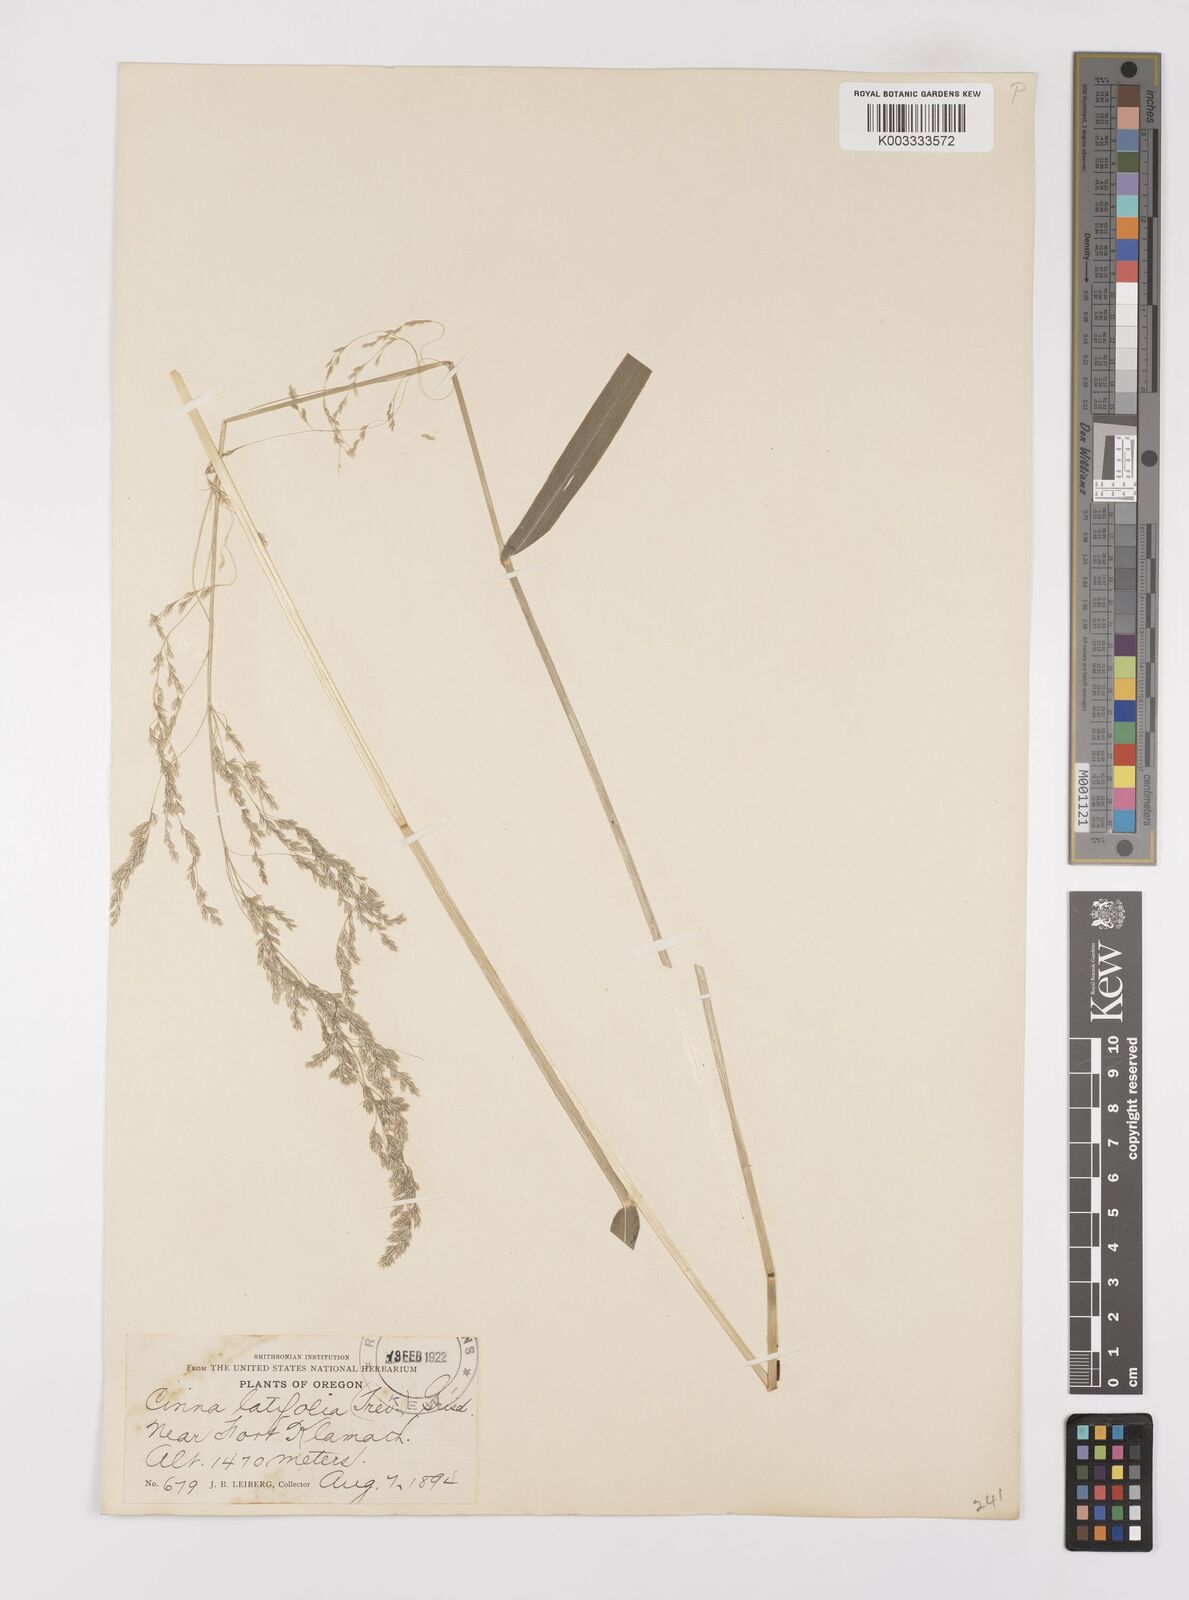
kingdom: Plantae
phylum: Tracheophyta
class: Liliopsida
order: Poales
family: Poaceae
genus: Cinna
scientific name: Cinna latifolia
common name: Drooping woodreed
